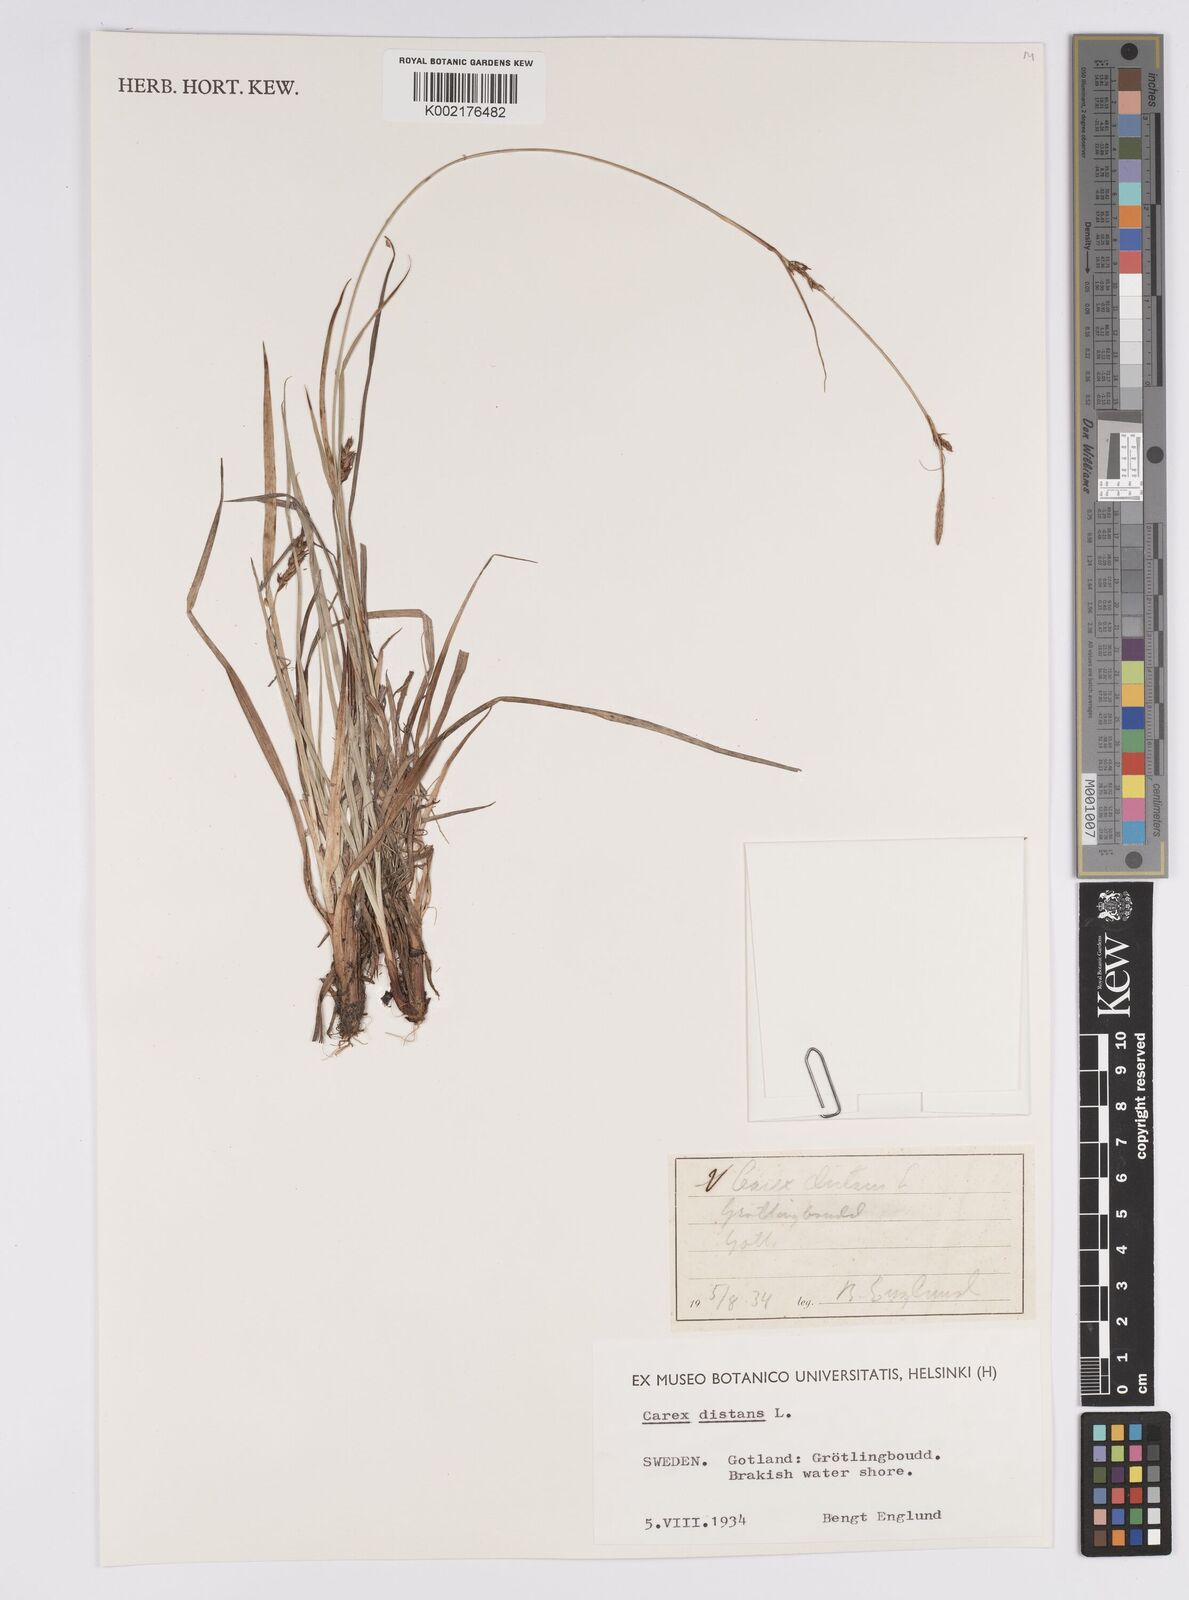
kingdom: Plantae
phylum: Tracheophyta
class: Liliopsida
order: Poales
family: Cyperaceae
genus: Carex
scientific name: Carex distans
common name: Distant sedge
